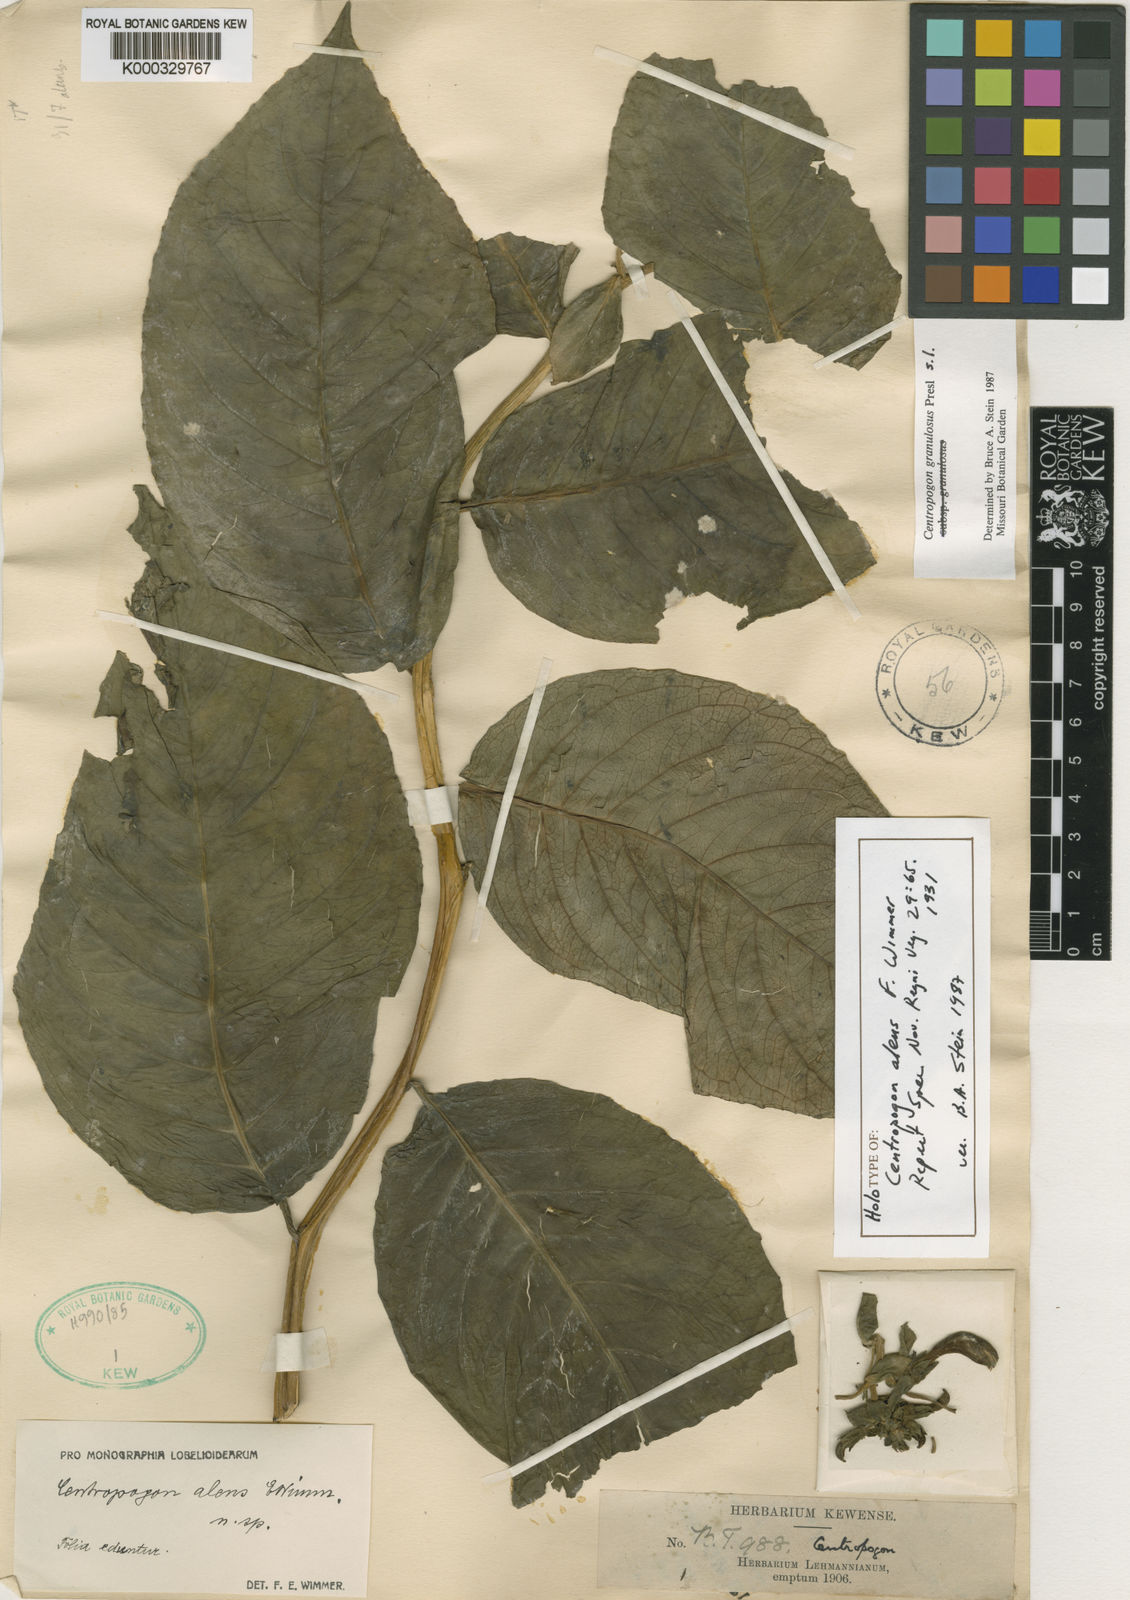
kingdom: Plantae
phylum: Tracheophyta
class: Magnoliopsida
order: Asterales
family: Campanulaceae
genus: Centropogon
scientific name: Centropogon granulosus
